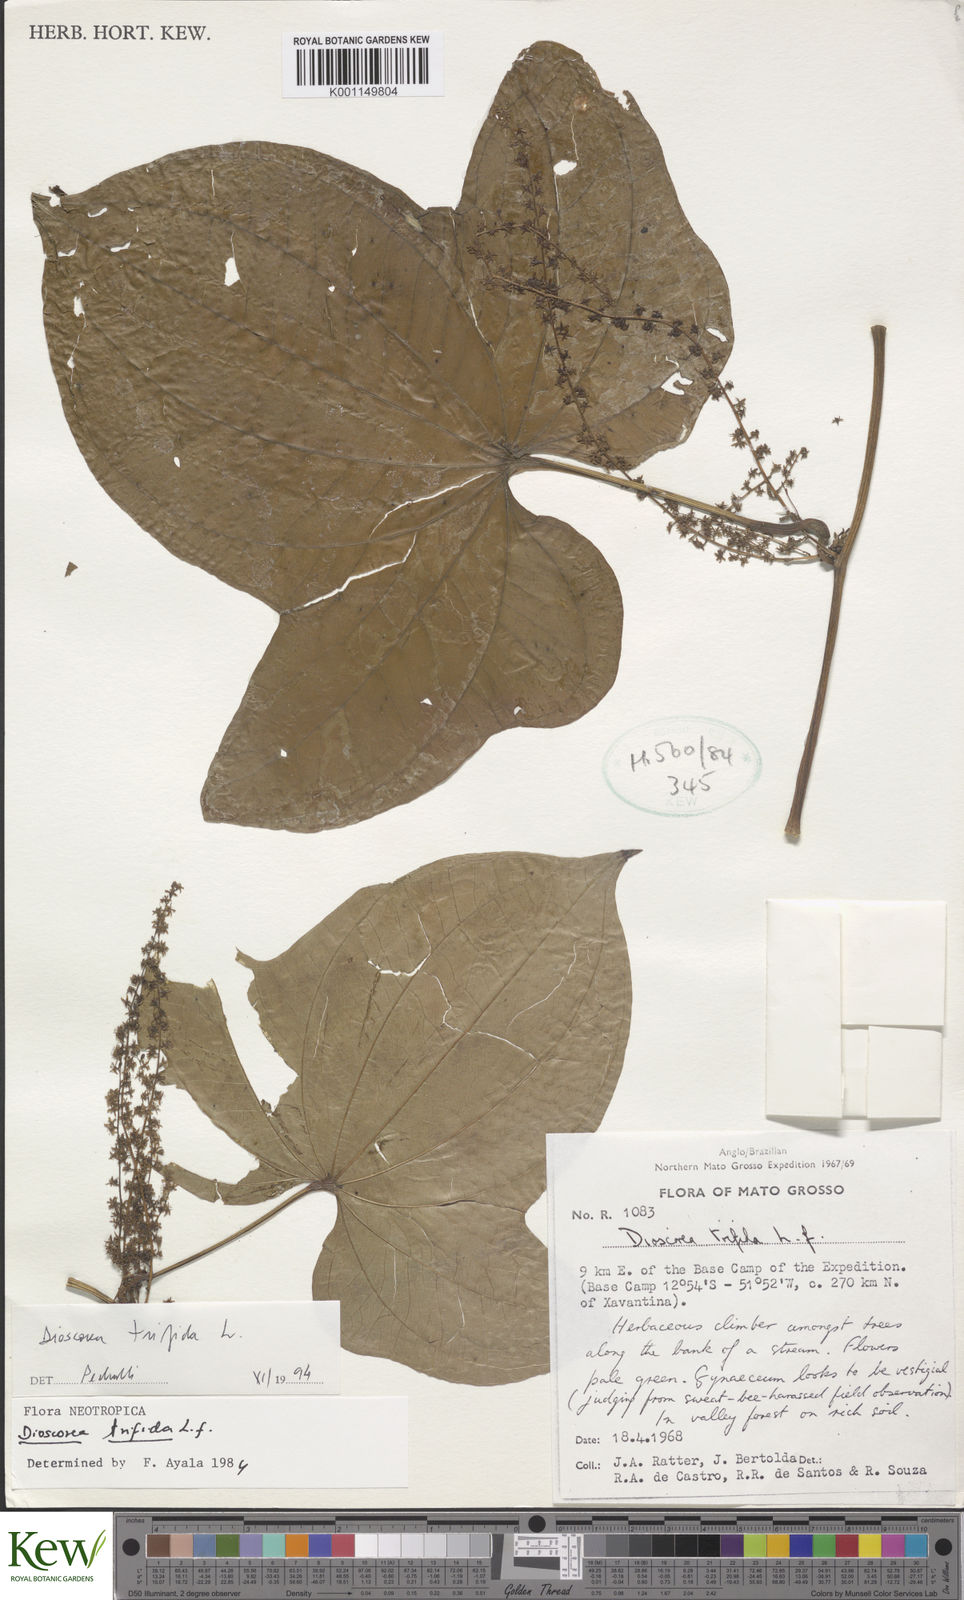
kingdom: Plantae
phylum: Tracheophyta
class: Liliopsida
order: Dioscoreales
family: Dioscoreaceae
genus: Dioscorea
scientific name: Dioscorea trifida
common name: Cush-cush
